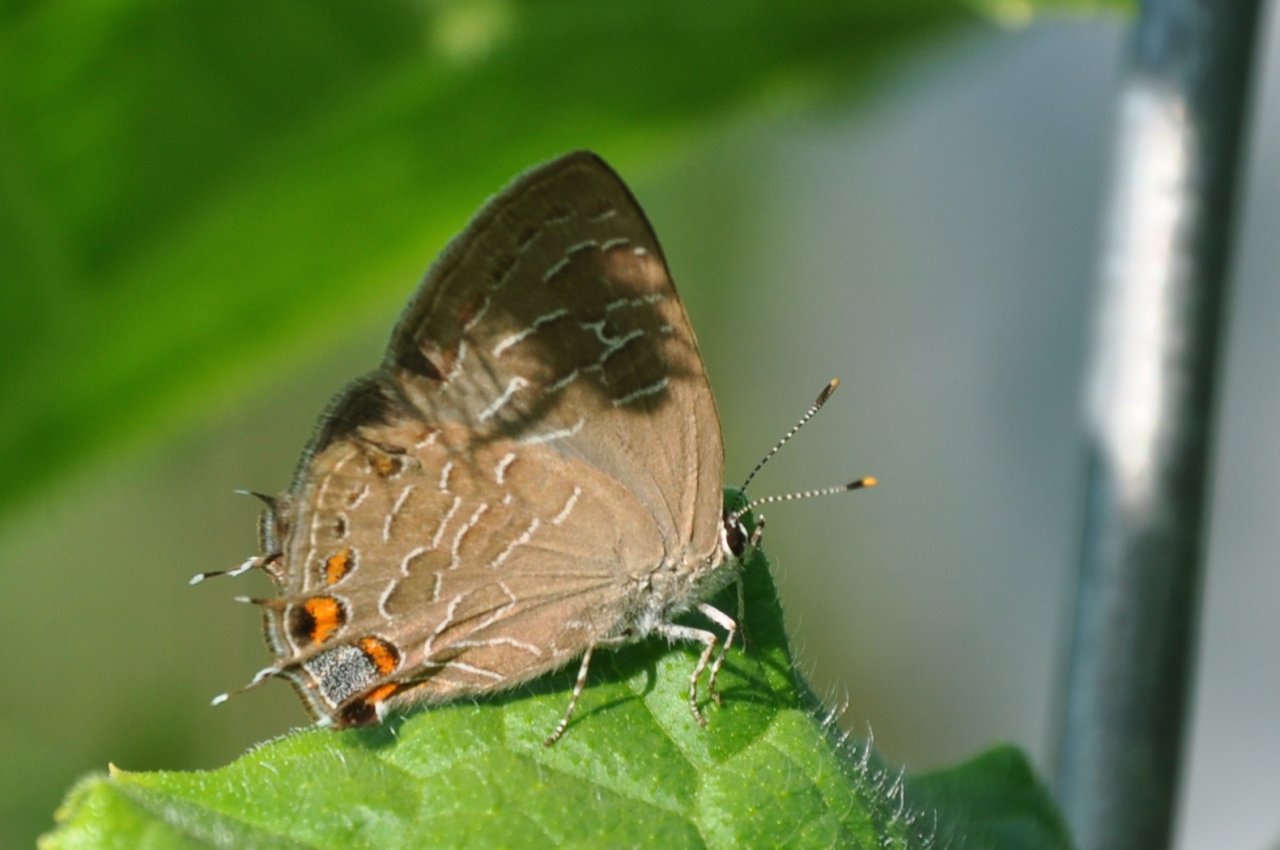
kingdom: Animalia
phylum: Arthropoda
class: Insecta
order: Lepidoptera
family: Lycaenidae
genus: Satyrium
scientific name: Satyrium liparops
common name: Striped Hairstreak
